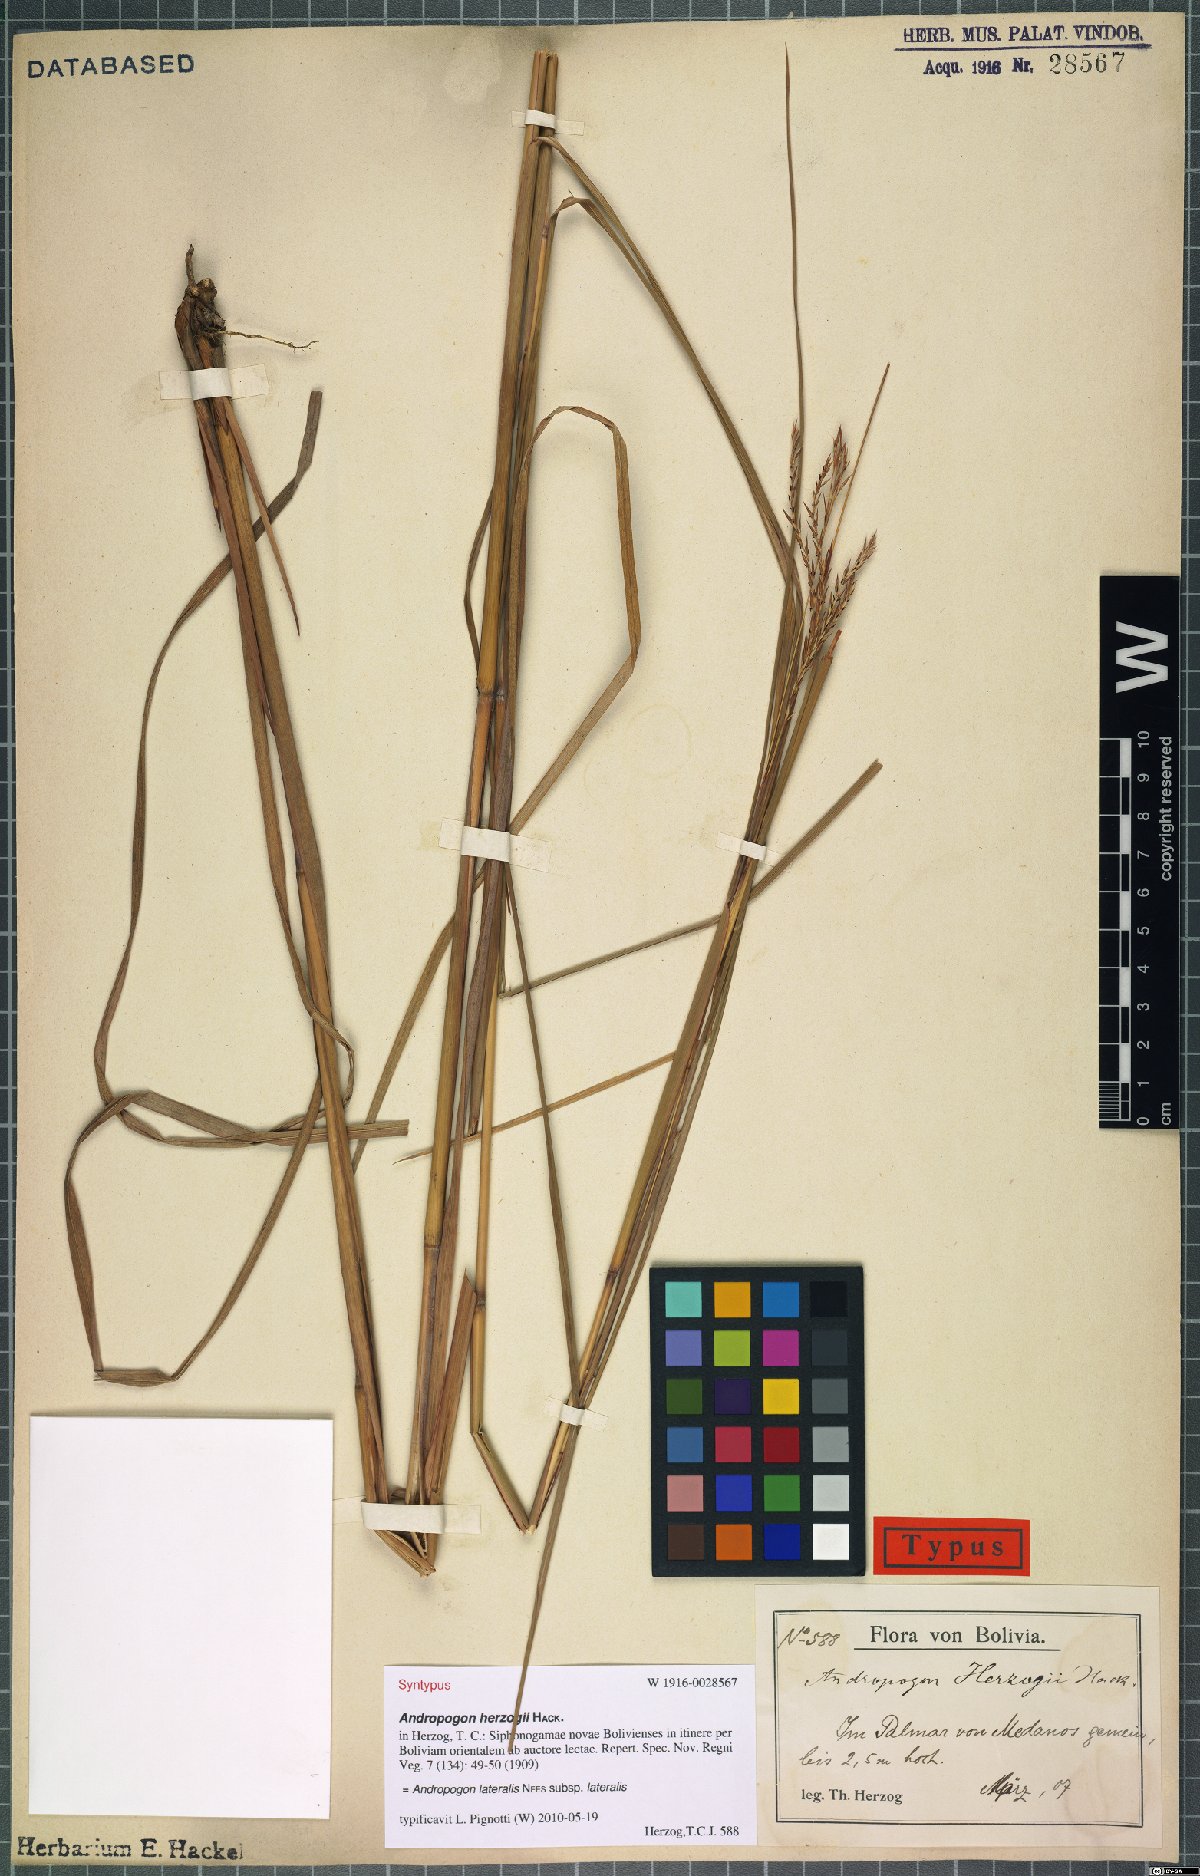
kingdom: Plantae
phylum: Tracheophyta
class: Liliopsida
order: Poales
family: Poaceae
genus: Andropogon
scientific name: Andropogon lateralis
